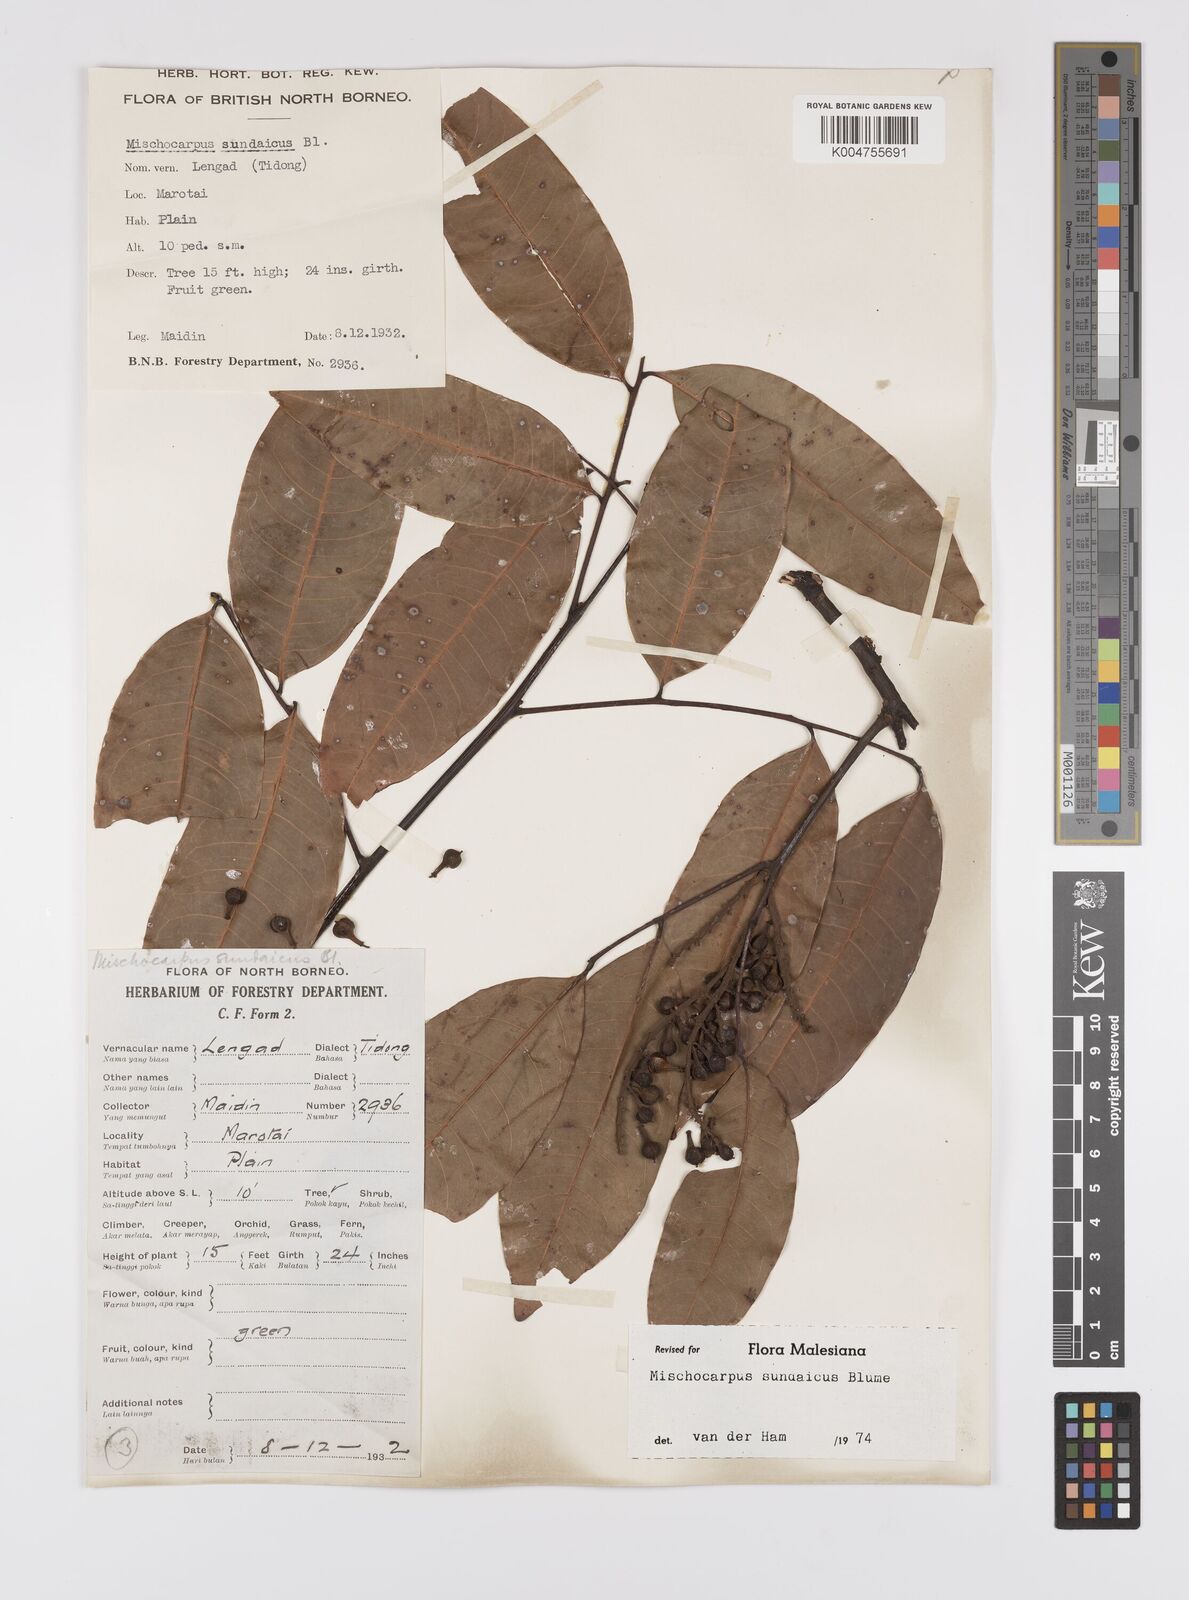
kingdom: Plantae
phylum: Tracheophyta
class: Magnoliopsida
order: Sapindales
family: Sapindaceae
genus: Mischocarpus
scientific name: Mischocarpus sundaicus
